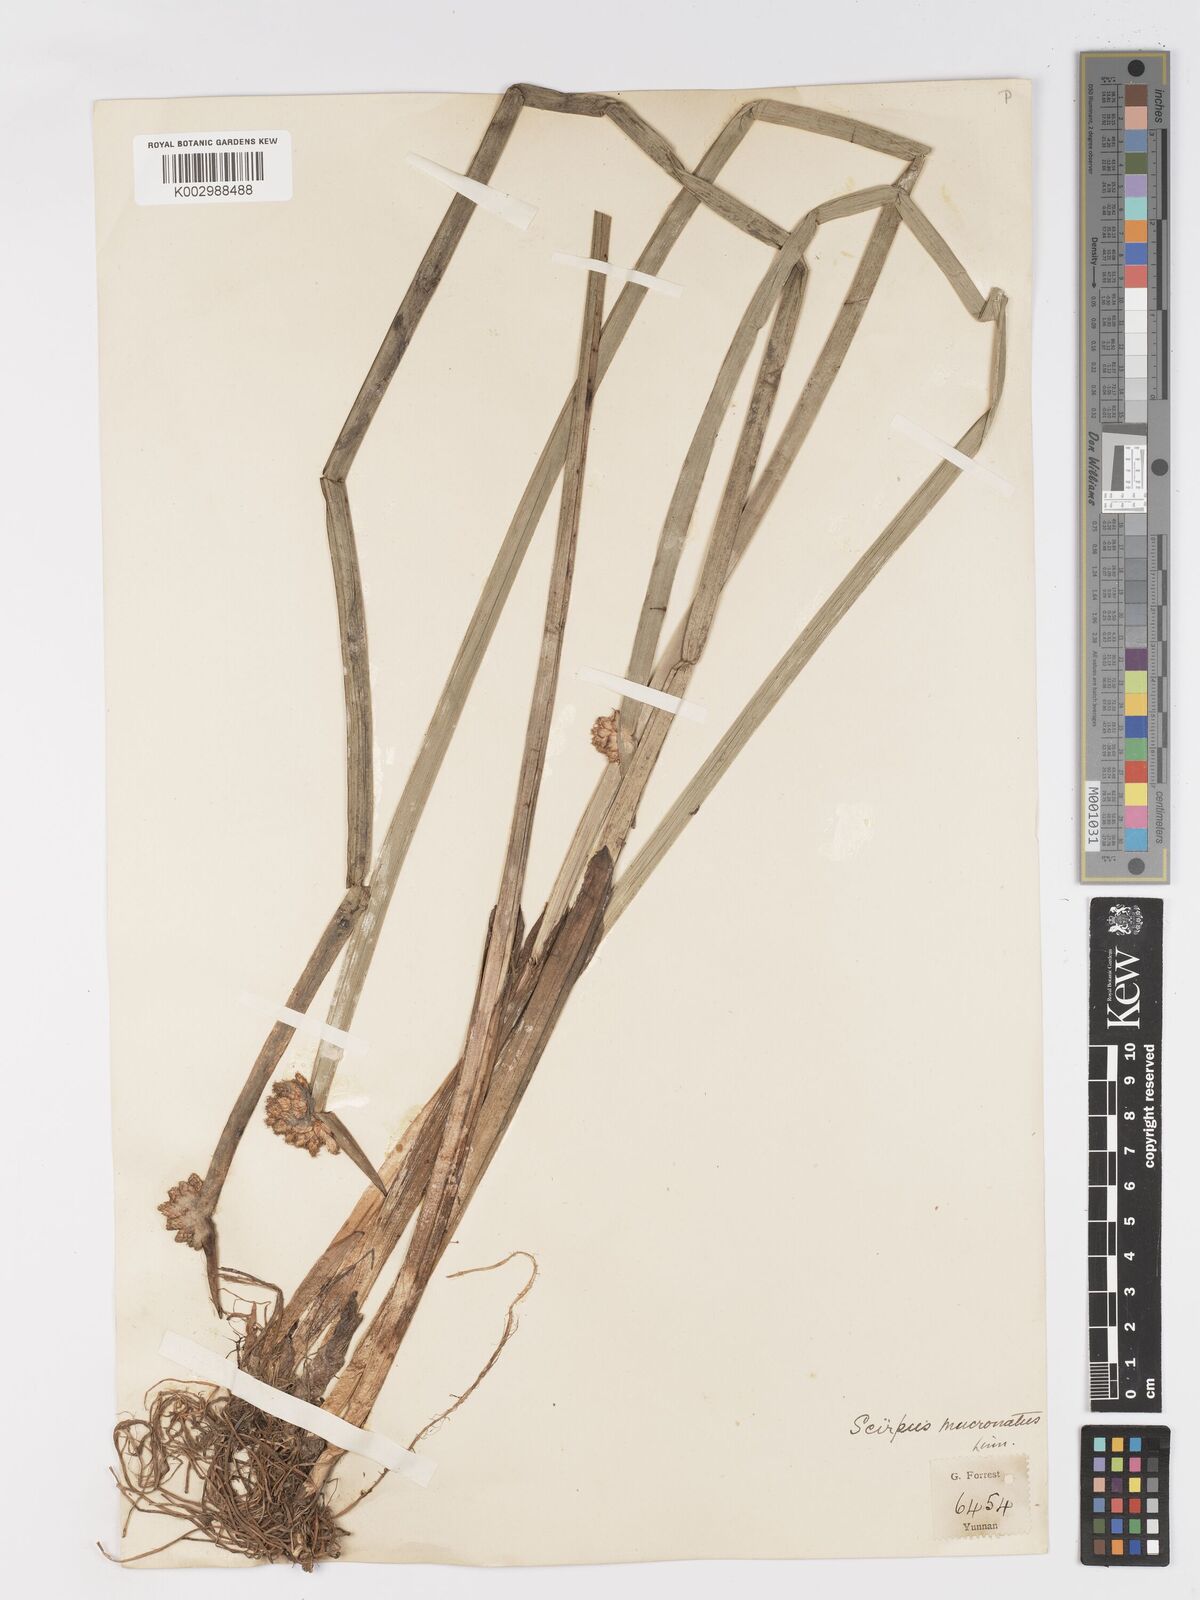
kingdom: Plantae
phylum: Tracheophyta
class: Liliopsida
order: Poales
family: Cyperaceae
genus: Schoenoplectiella
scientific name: Schoenoplectiella mucronata
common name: Bog bulrush
